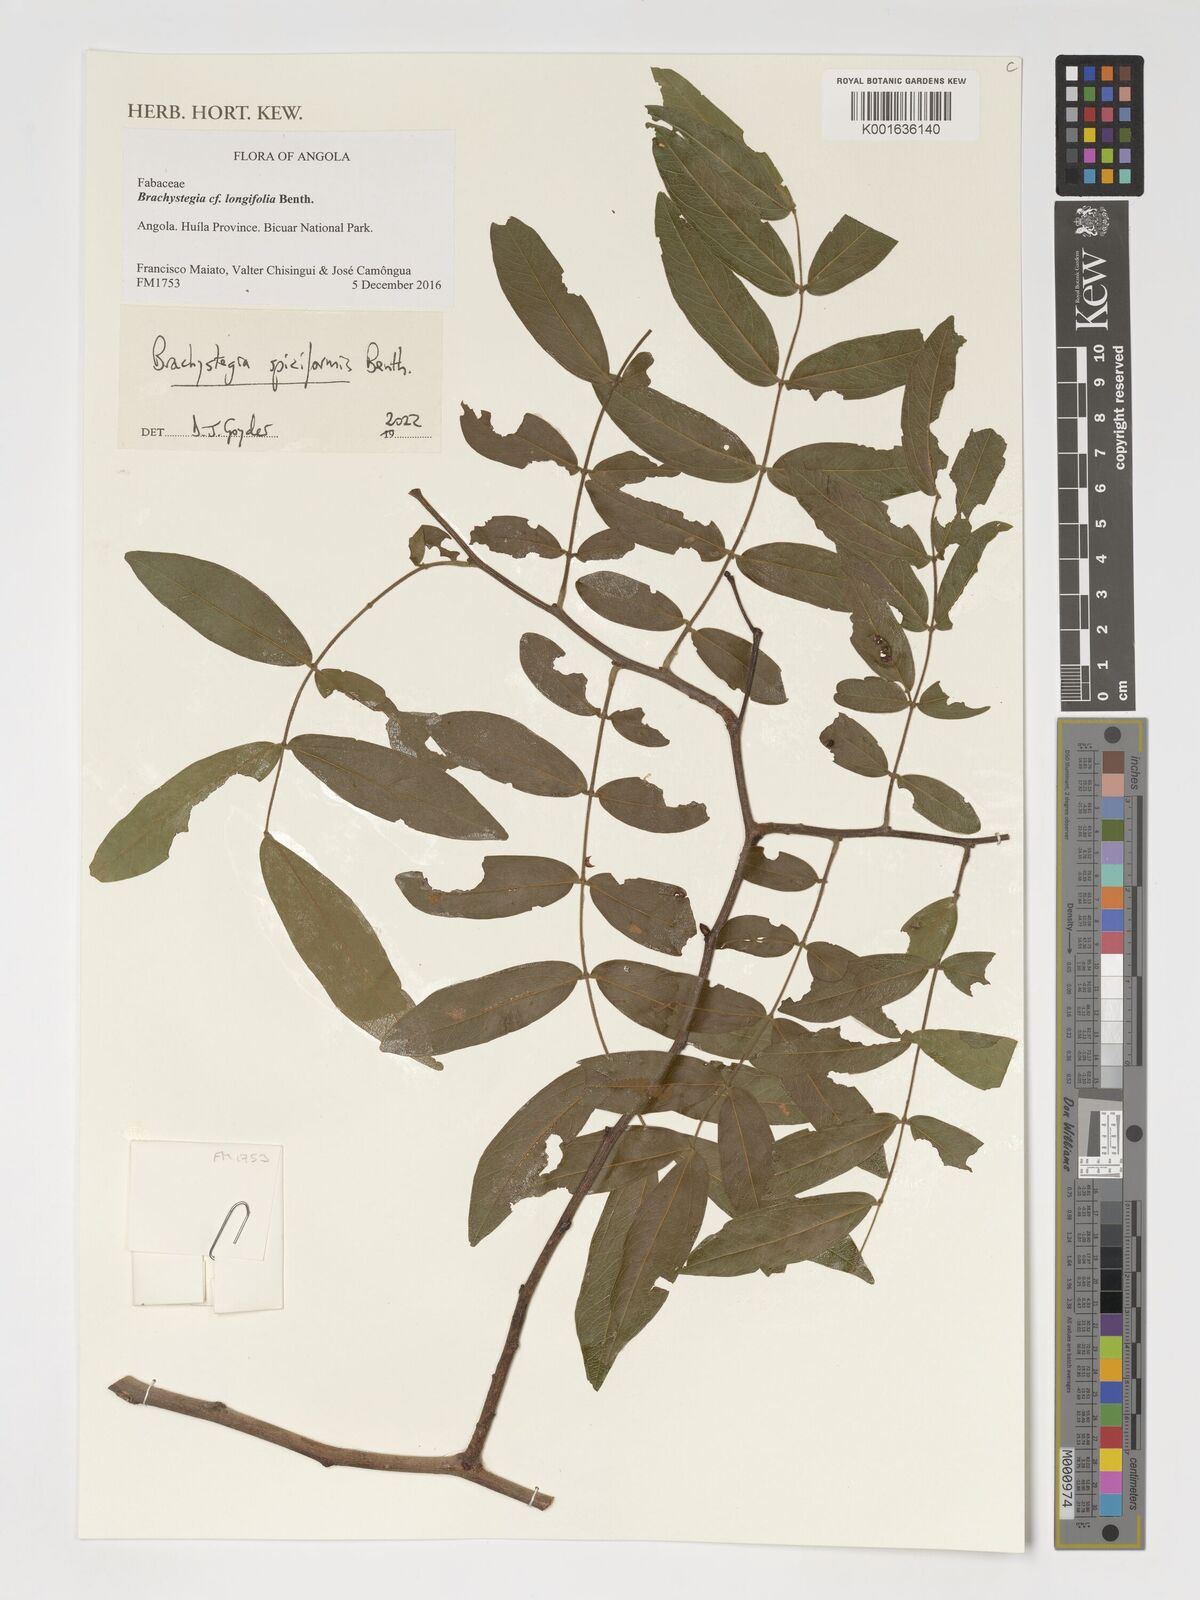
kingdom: Plantae
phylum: Tracheophyta
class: Magnoliopsida
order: Fabales
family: Fabaceae
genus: Brachystegia
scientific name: Brachystegia spiciformis
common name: Zebrawood
